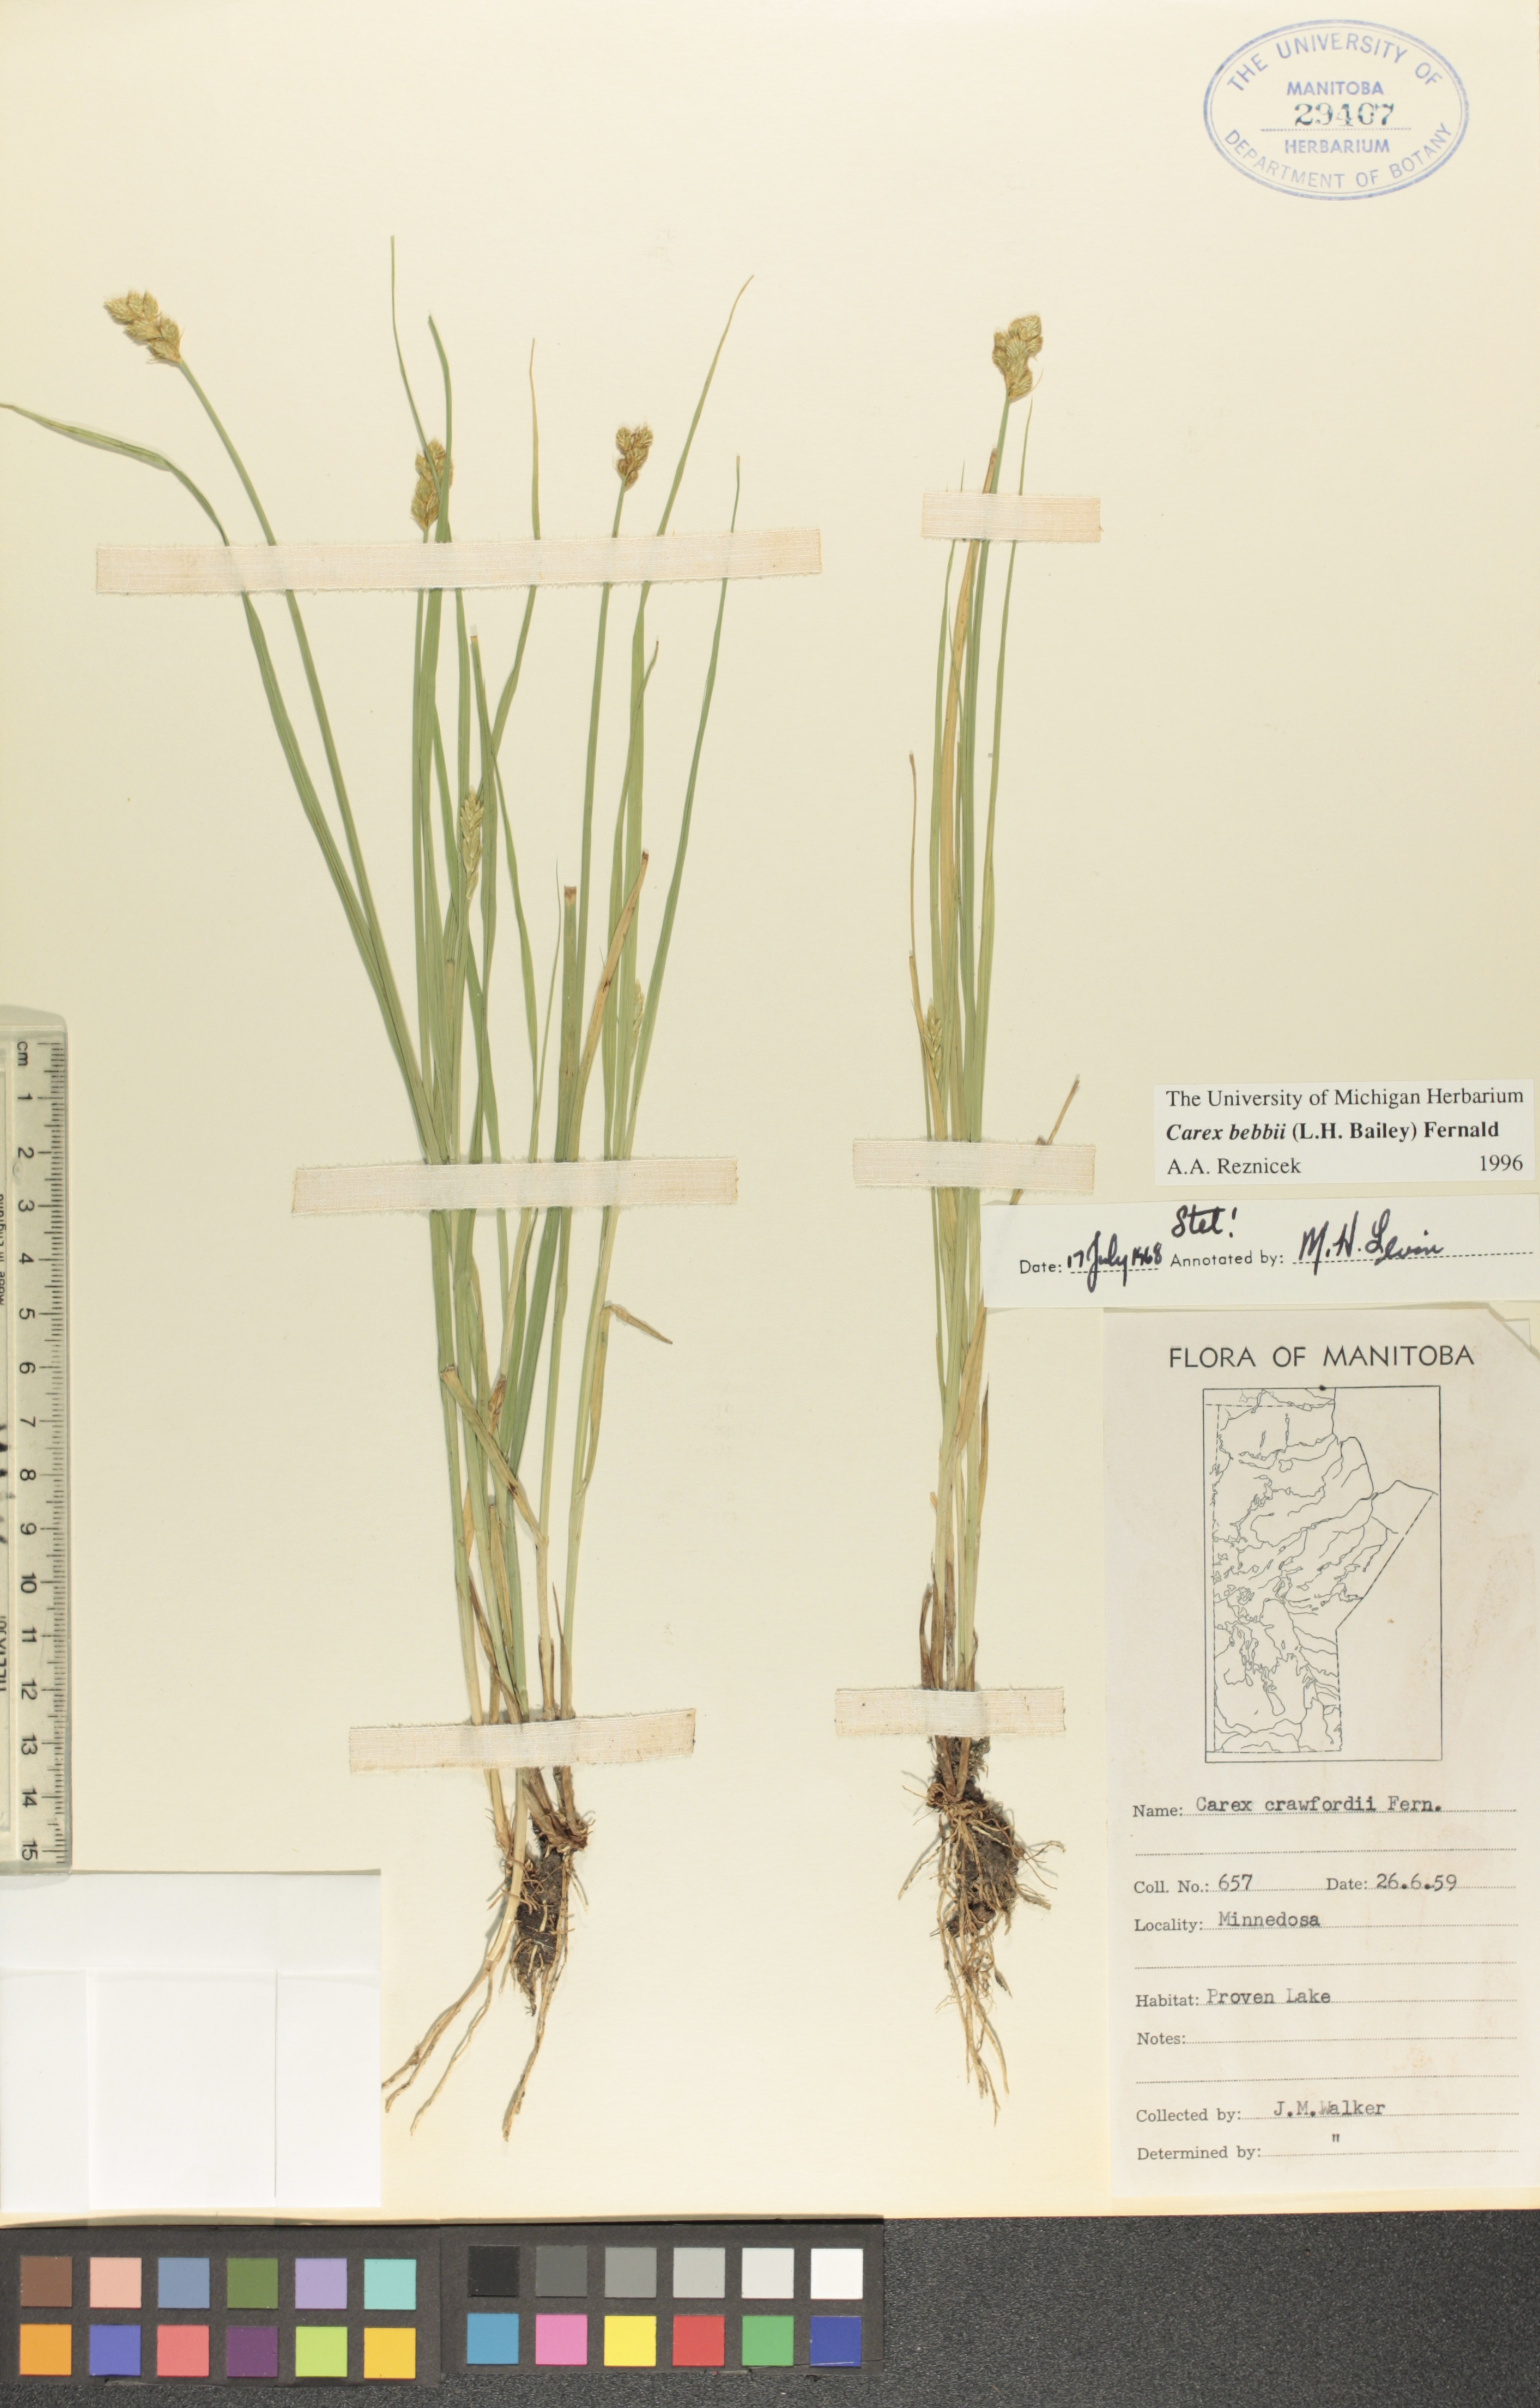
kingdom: Plantae
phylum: Tracheophyta
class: Liliopsida
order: Poales
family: Cyperaceae
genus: Carex
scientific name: Carex bebbii
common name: Bebb's sedge
